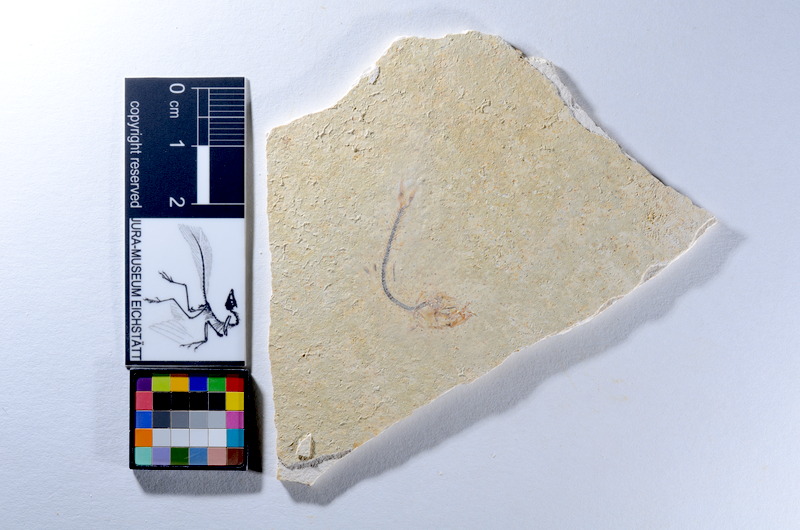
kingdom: Animalia
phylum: Chordata
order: Salmoniformes
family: Orthogonikleithridae
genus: Orthogonikleithrus
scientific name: Orthogonikleithrus hoelli
